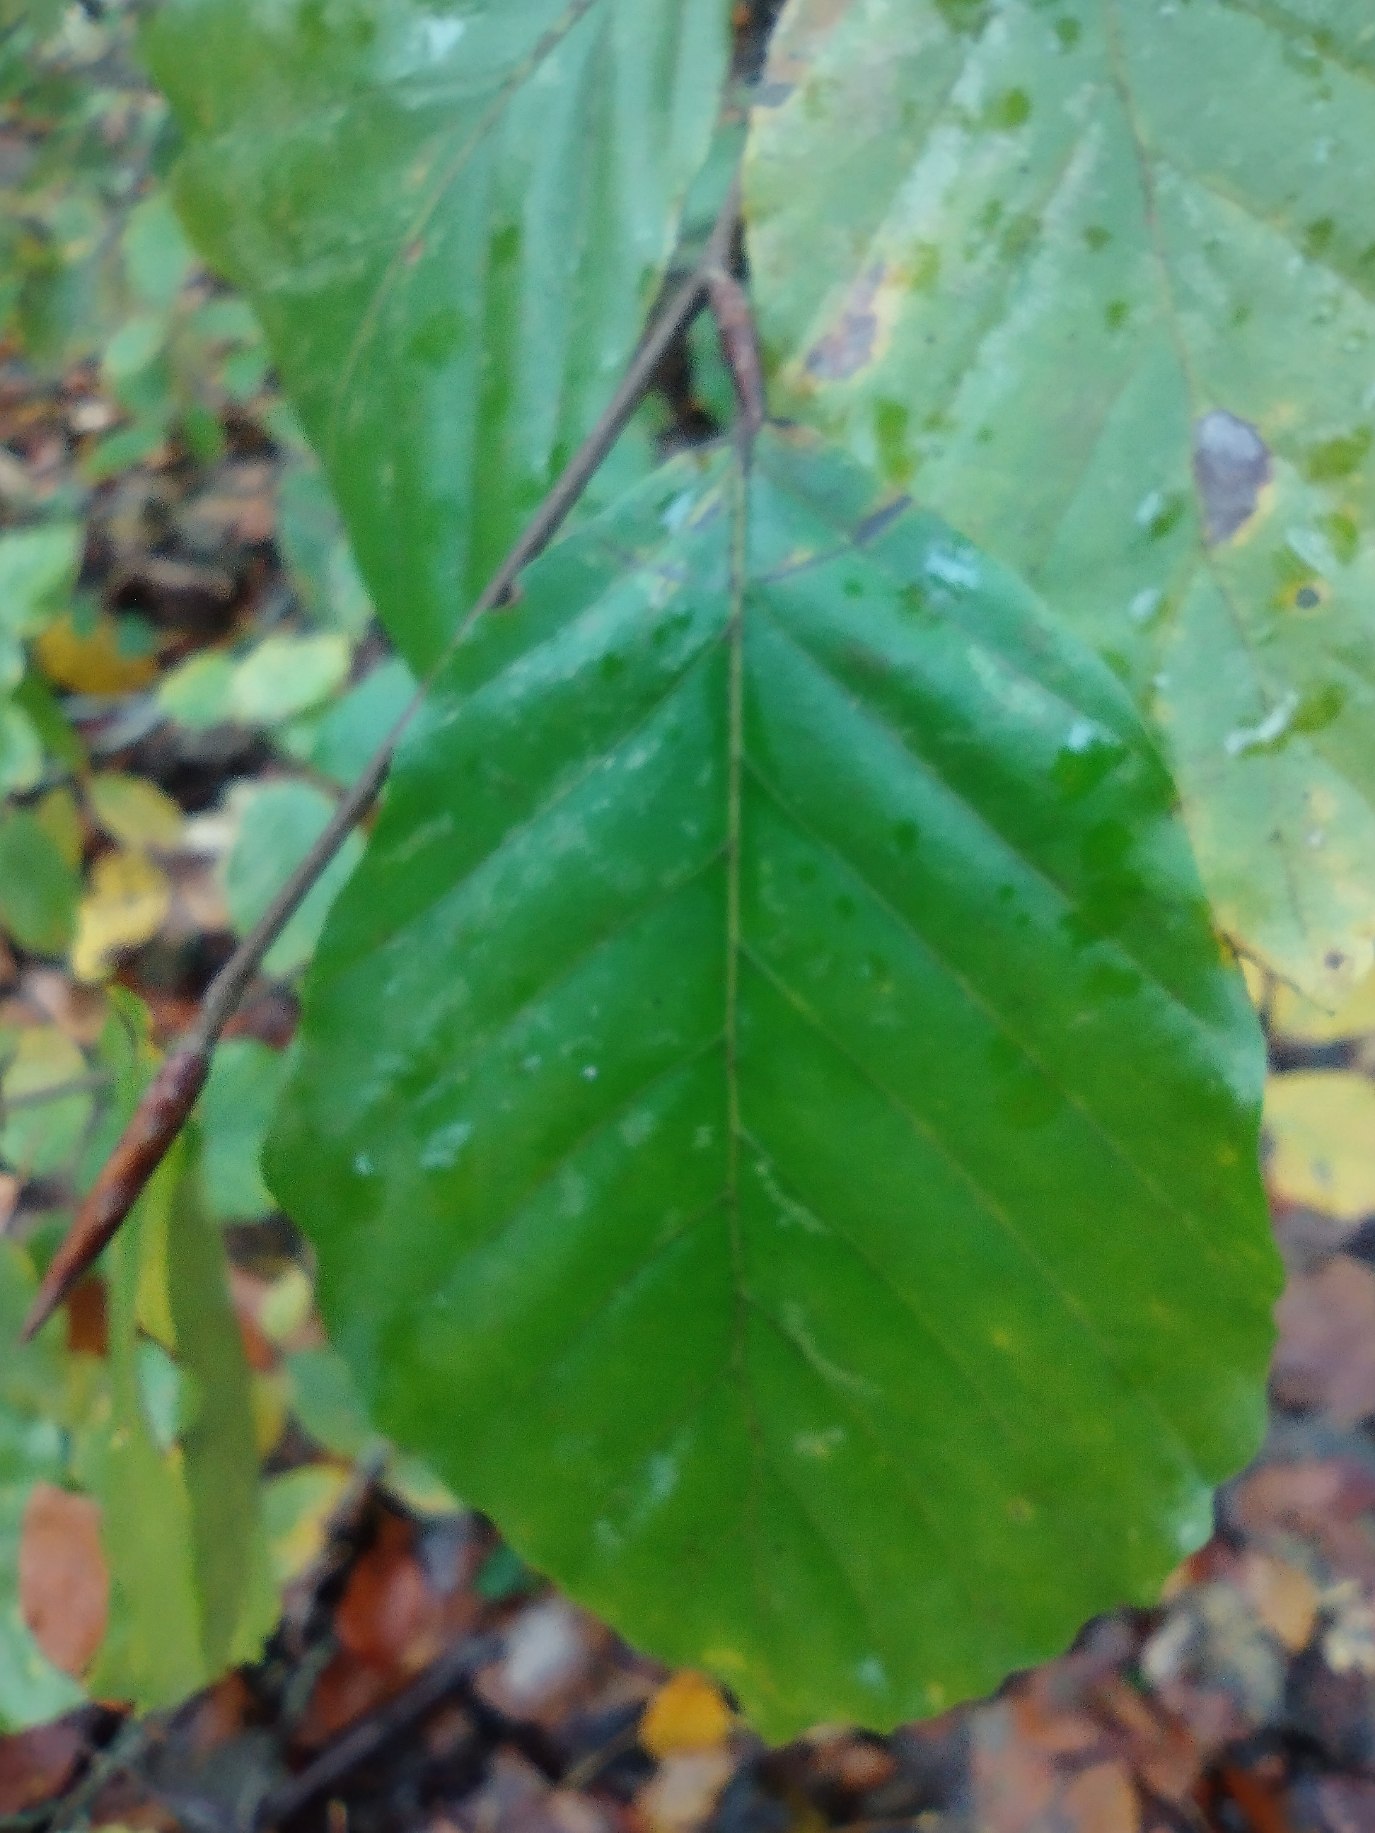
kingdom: Plantae
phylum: Tracheophyta
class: Magnoliopsida
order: Fagales
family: Fagaceae
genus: Fagus
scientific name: Fagus sylvatica
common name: Bøg
